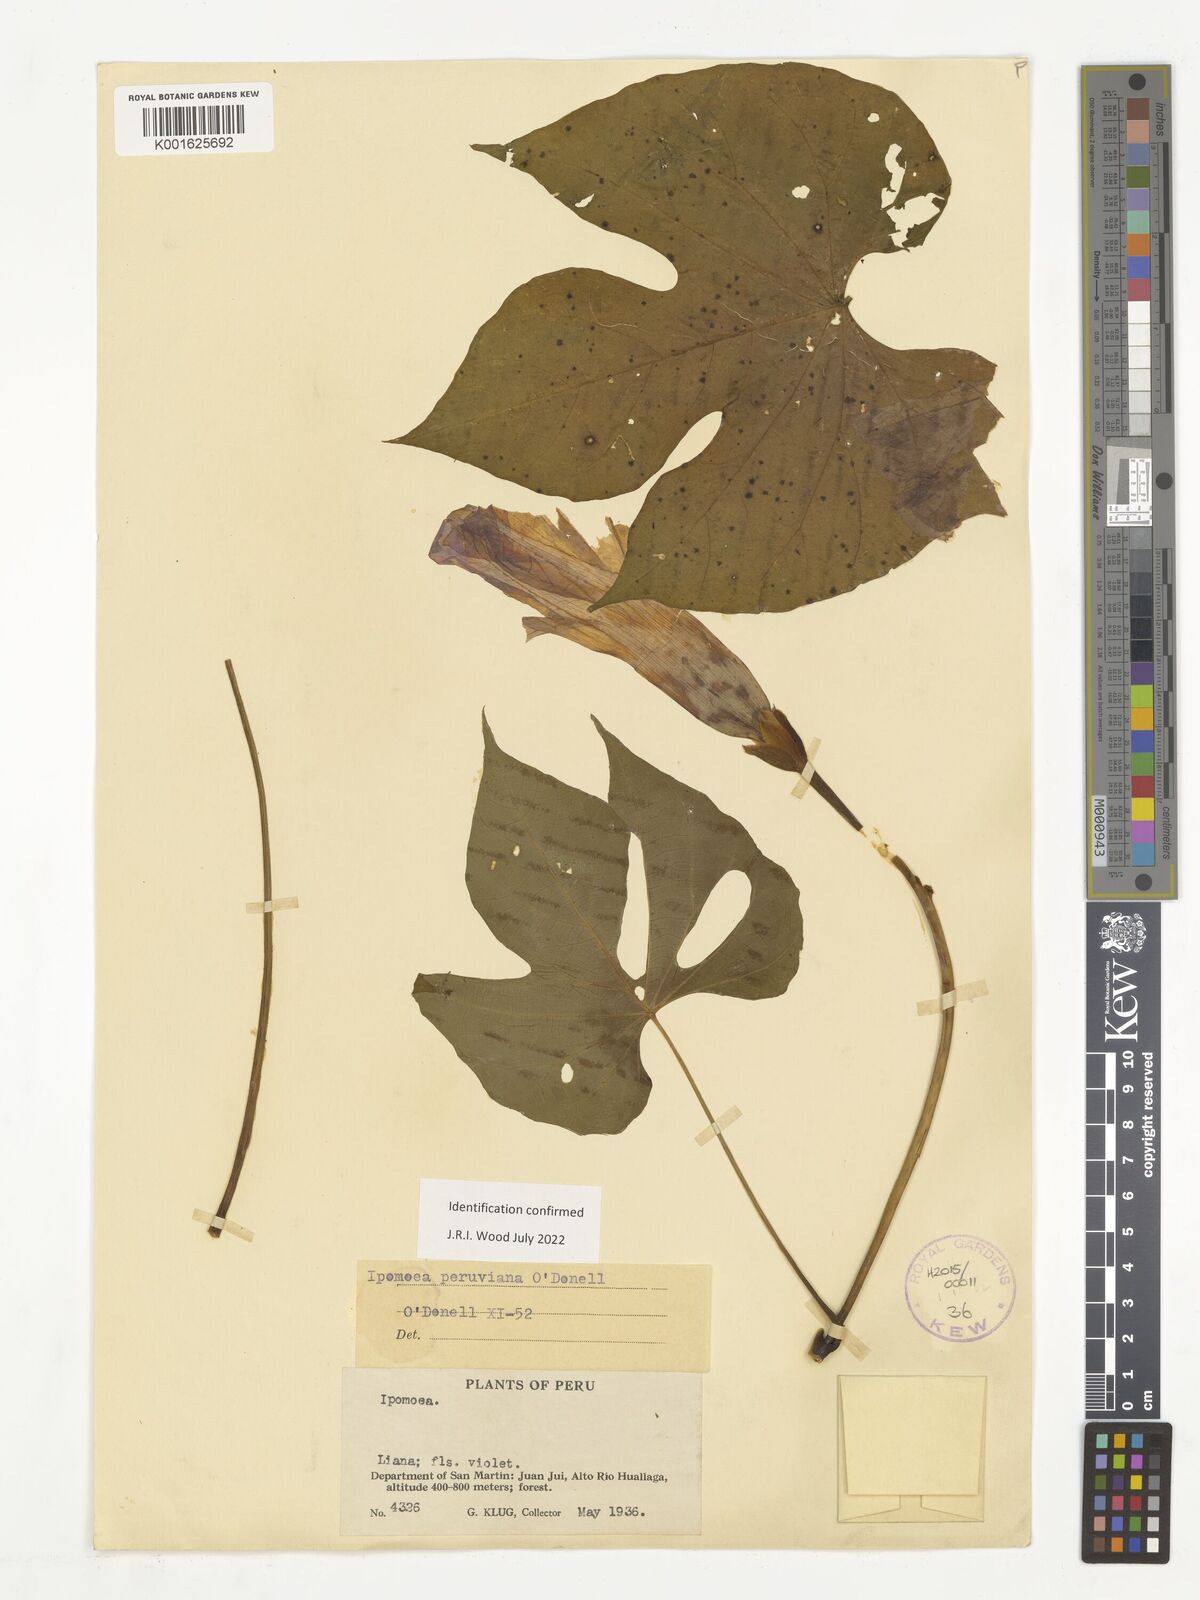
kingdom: Plantae
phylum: Tracheophyta
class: Magnoliopsida
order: Solanales
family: Convolvulaceae
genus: Ipomoea
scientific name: Ipomoea peruviana
